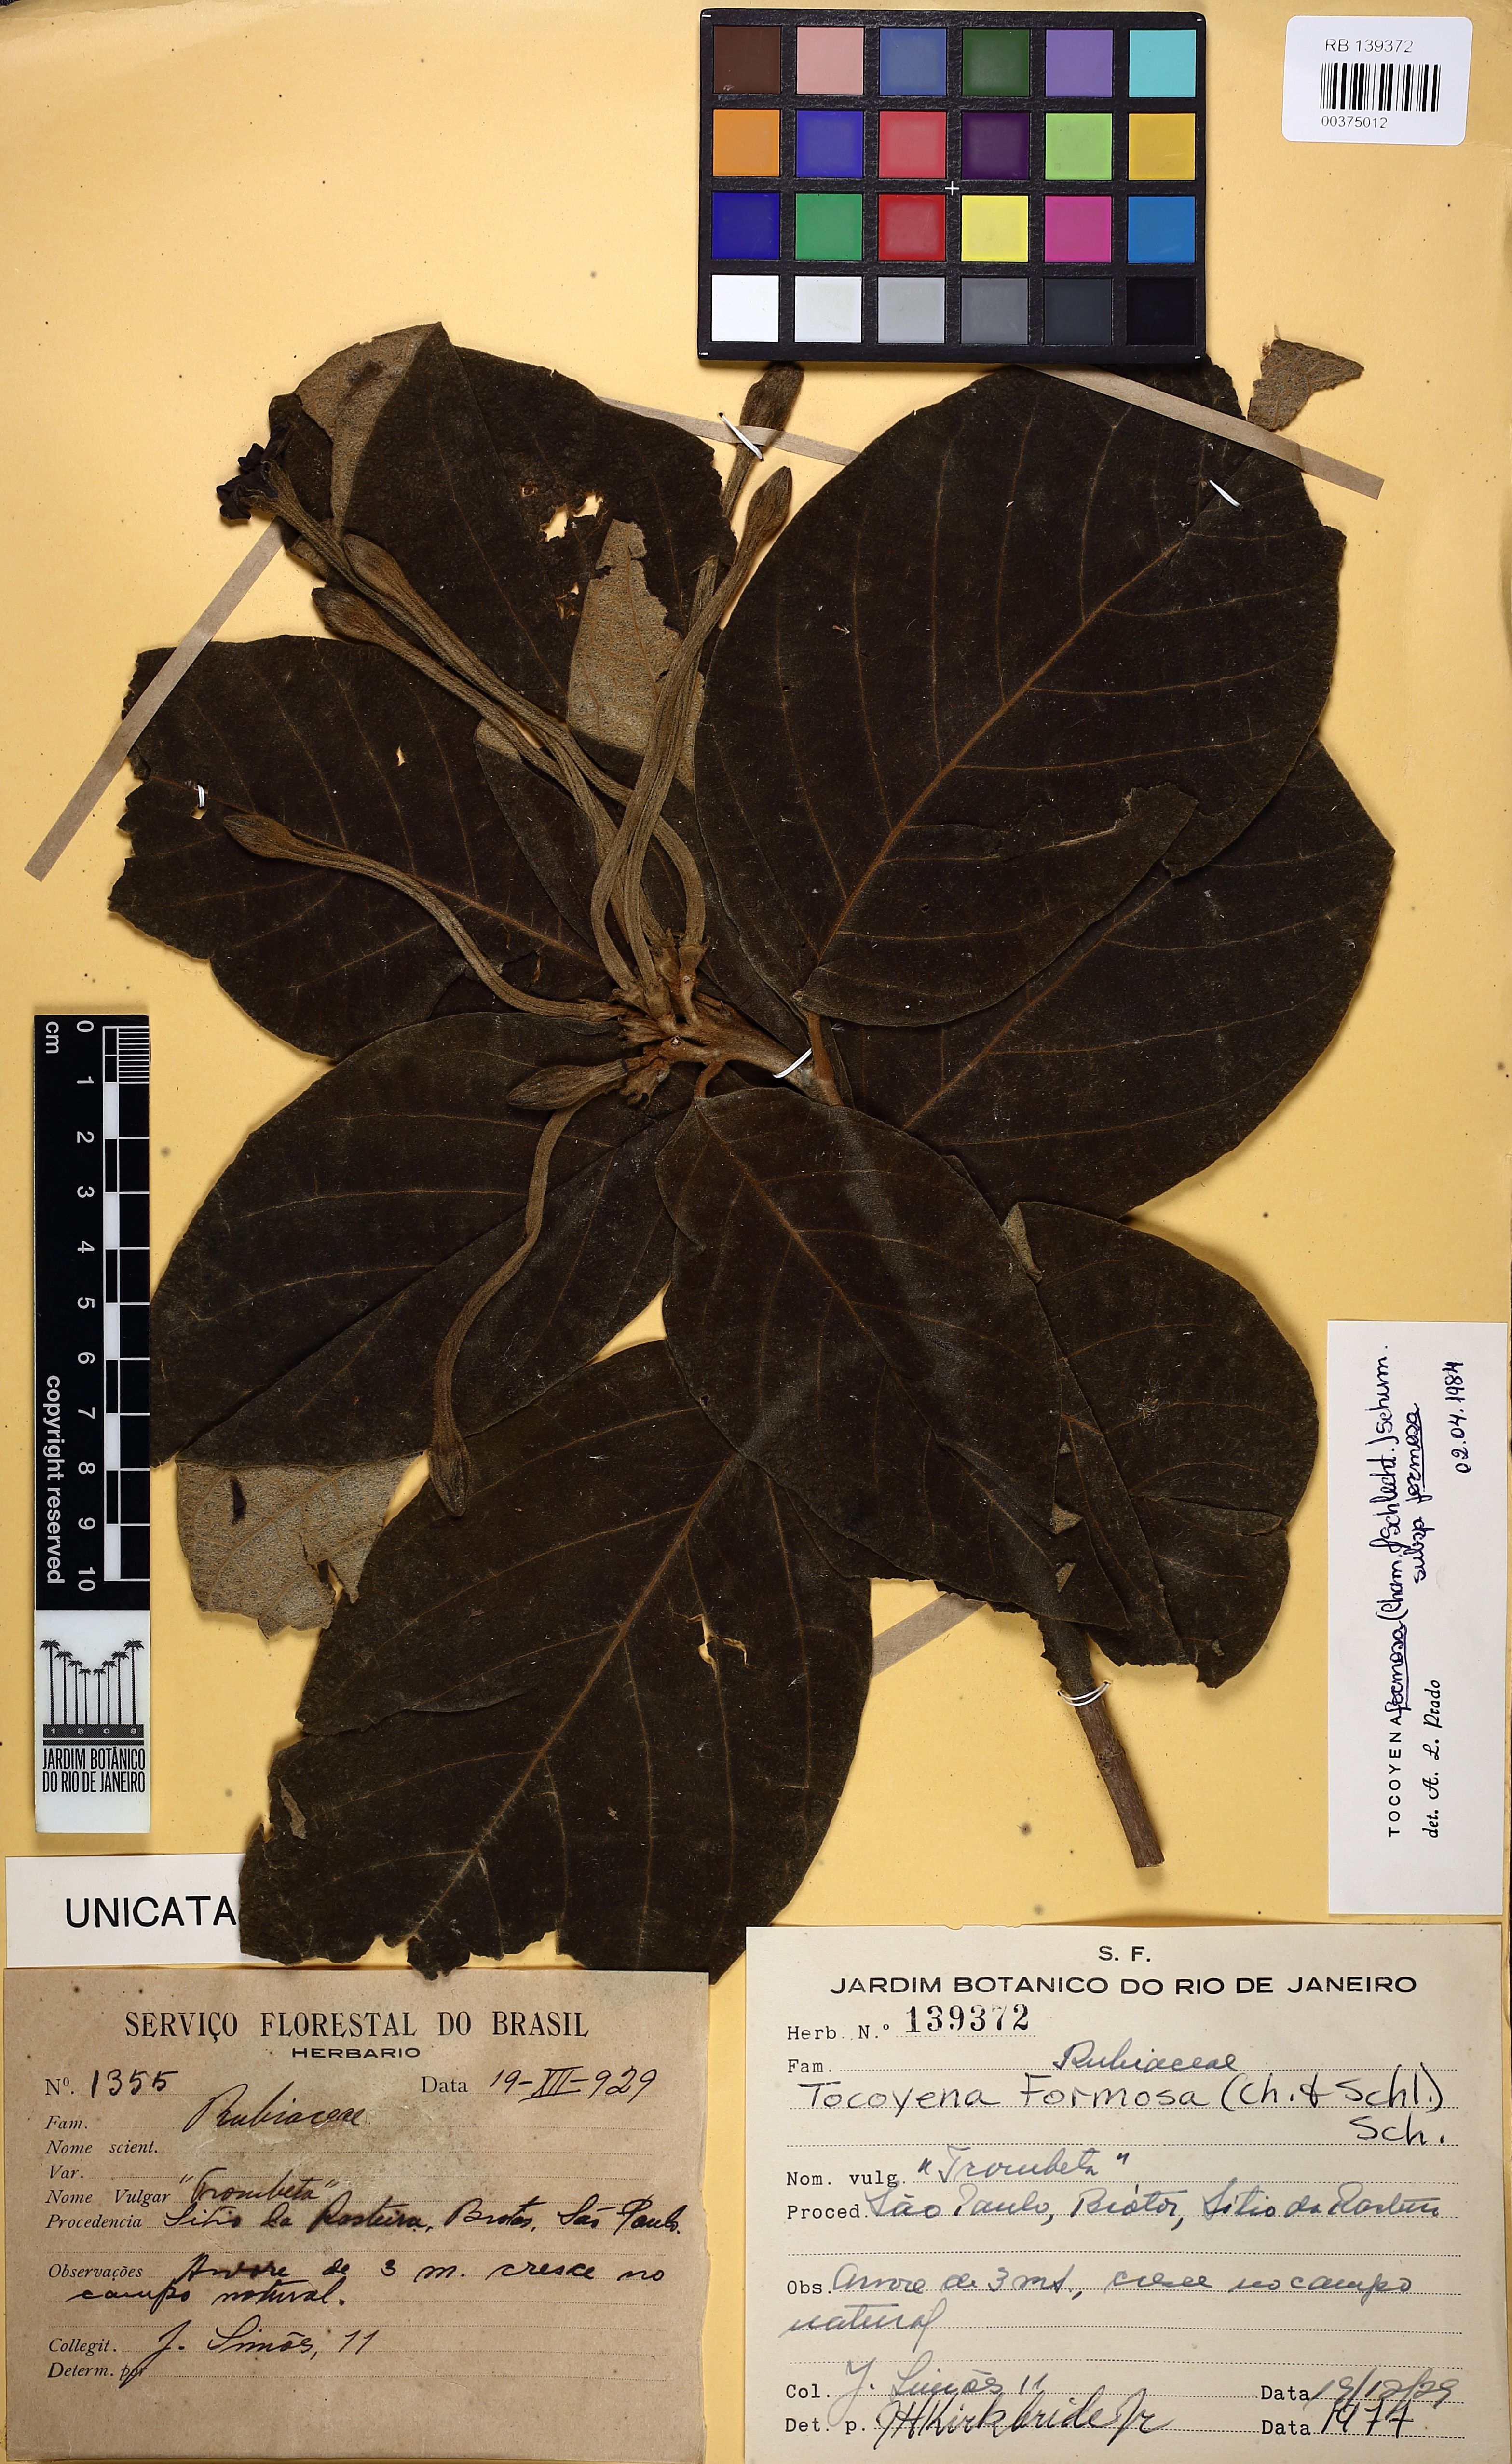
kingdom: Plantae
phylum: Tracheophyta
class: Magnoliopsida
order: Gentianales
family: Rubiaceae
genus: Tocoyena
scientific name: Tocoyena formosa
